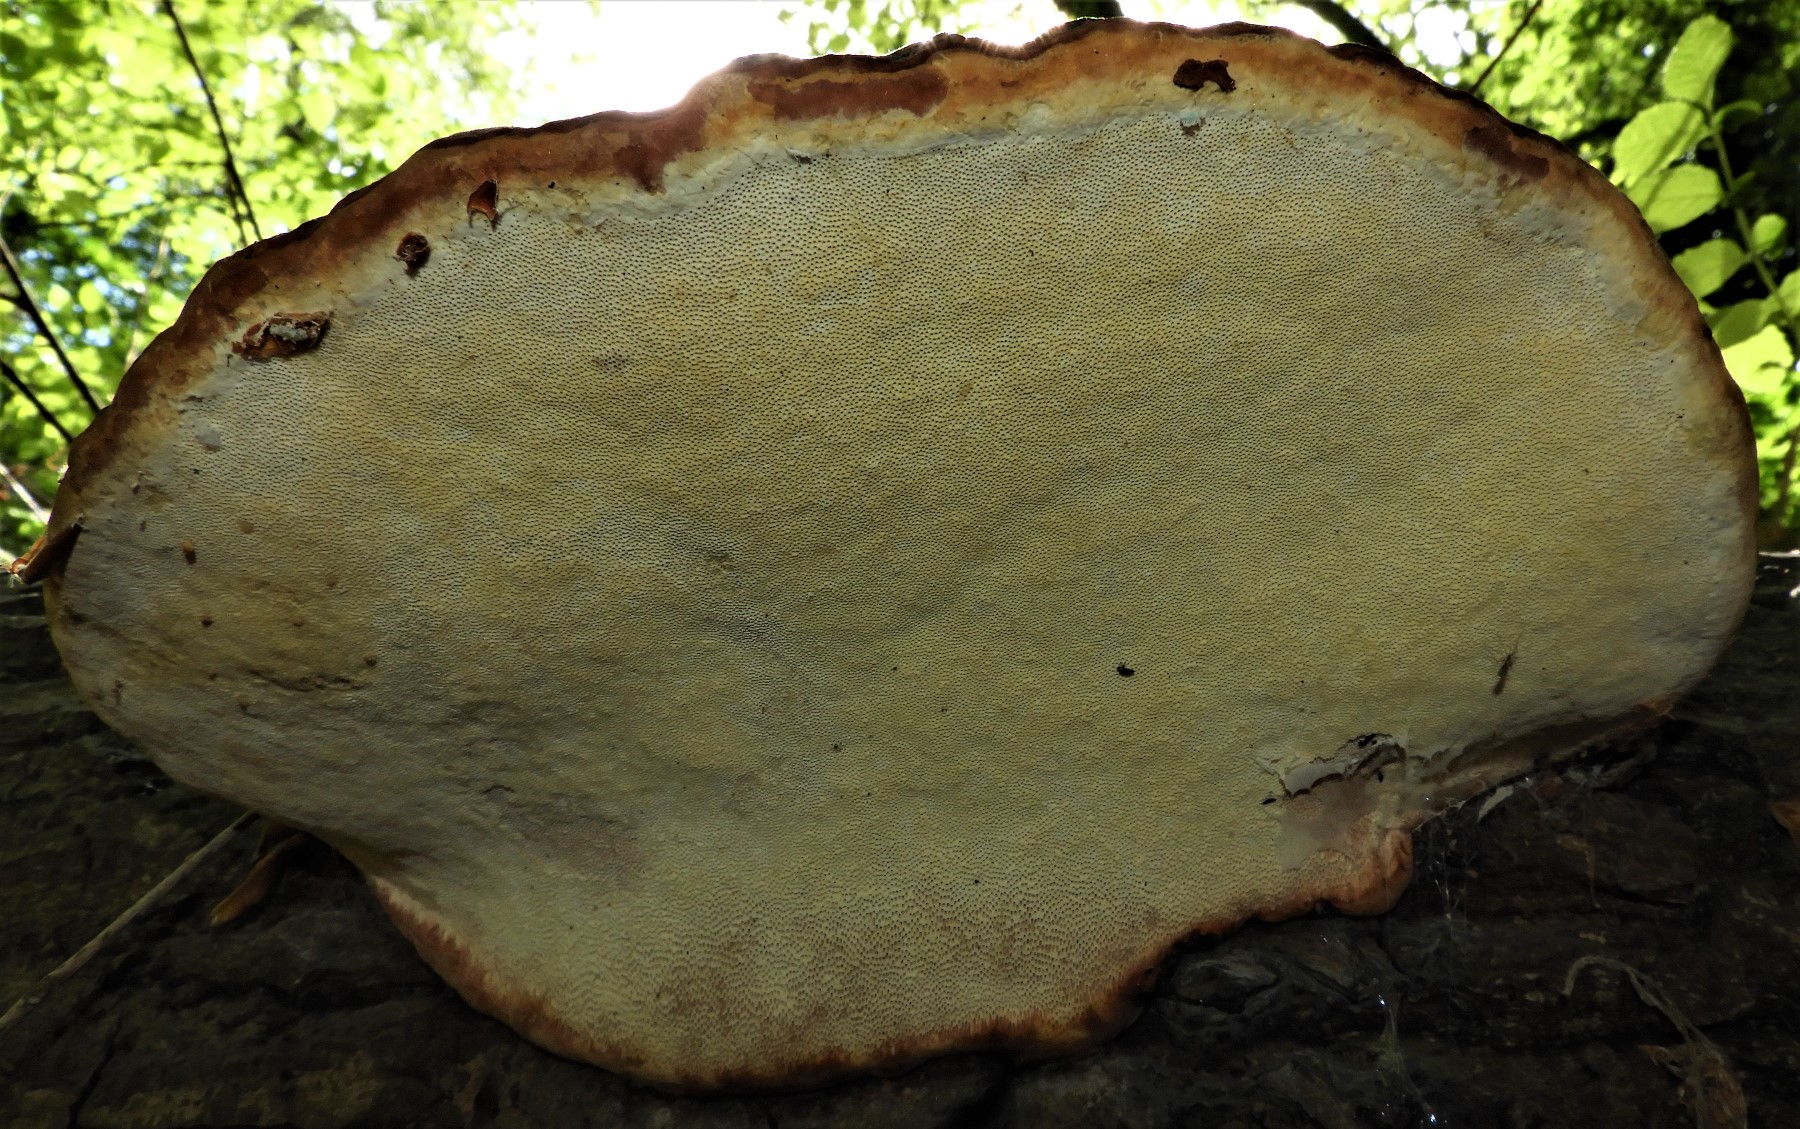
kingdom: Fungi
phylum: Basidiomycota
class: Agaricomycetes
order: Polyporales
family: Polyporaceae
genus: Fomes
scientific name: Fomes fomentarius
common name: tøndersvamp
